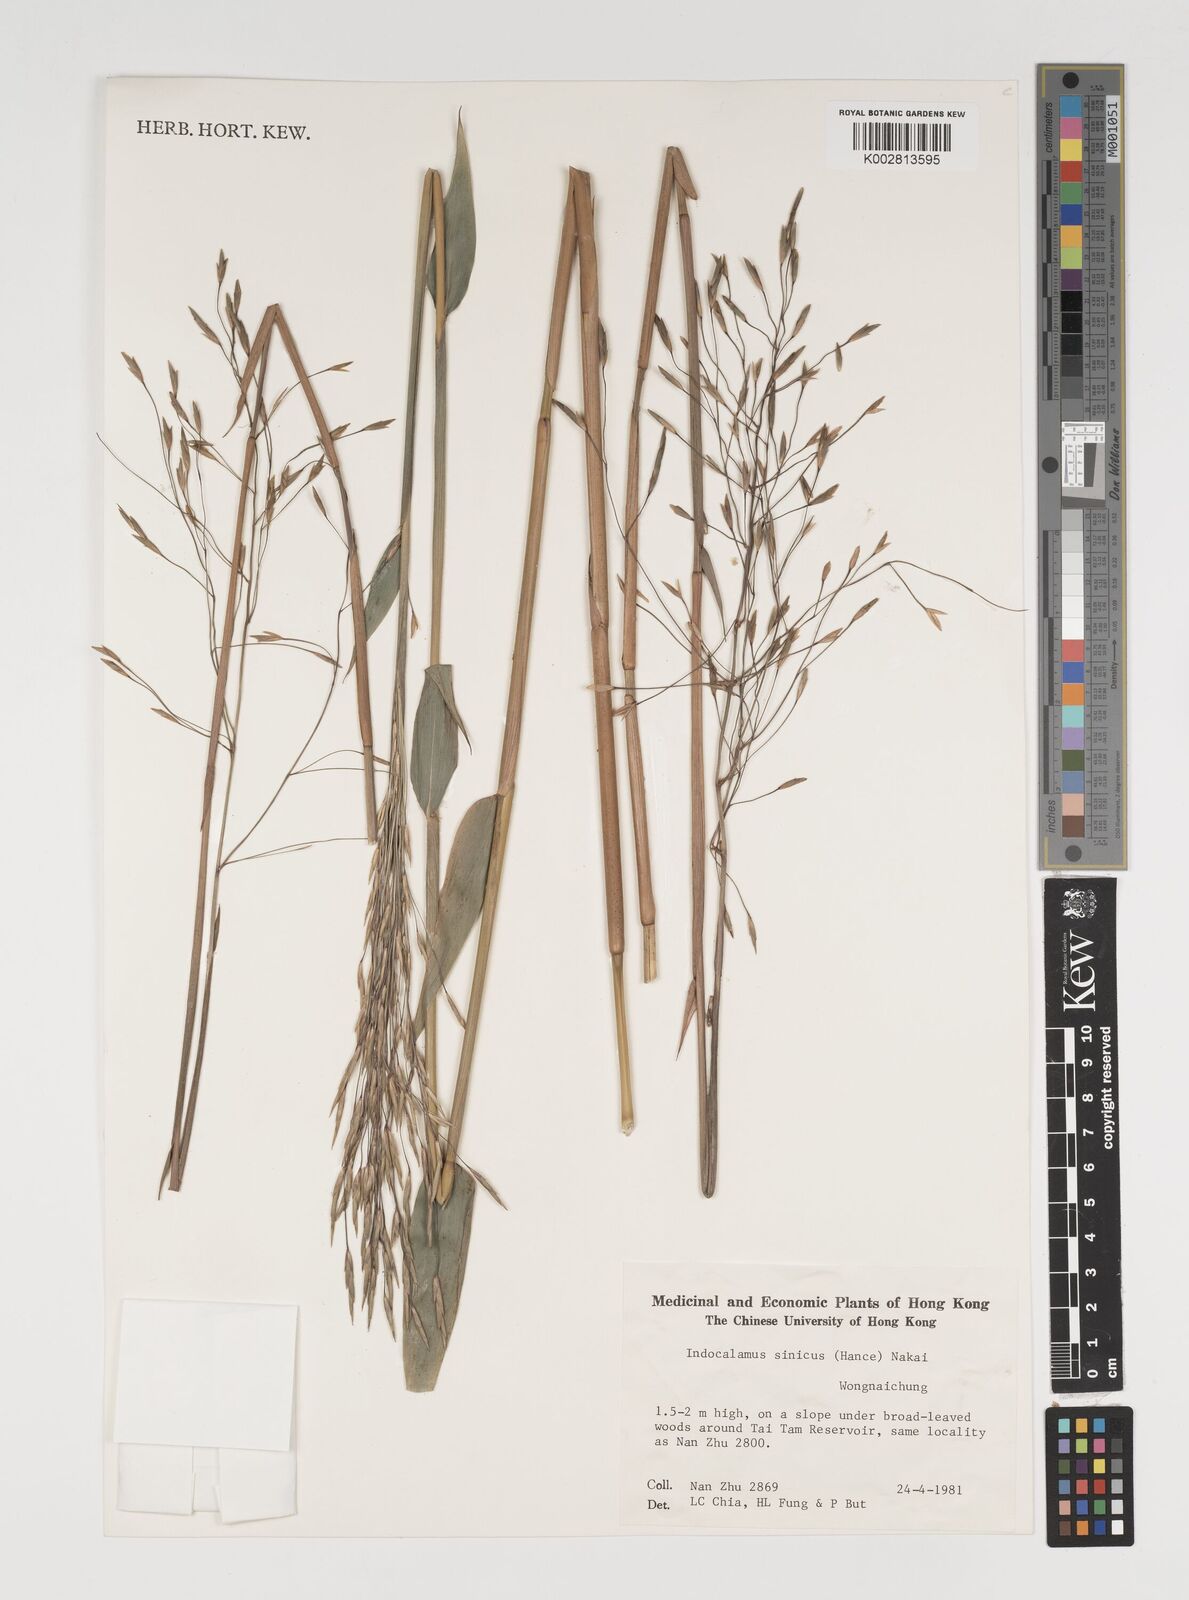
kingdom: Plantae
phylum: Tracheophyta
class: Liliopsida
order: Poales
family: Poaceae
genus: Indocalamus
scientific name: Indocalamus sinicus
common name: Chinese cane
